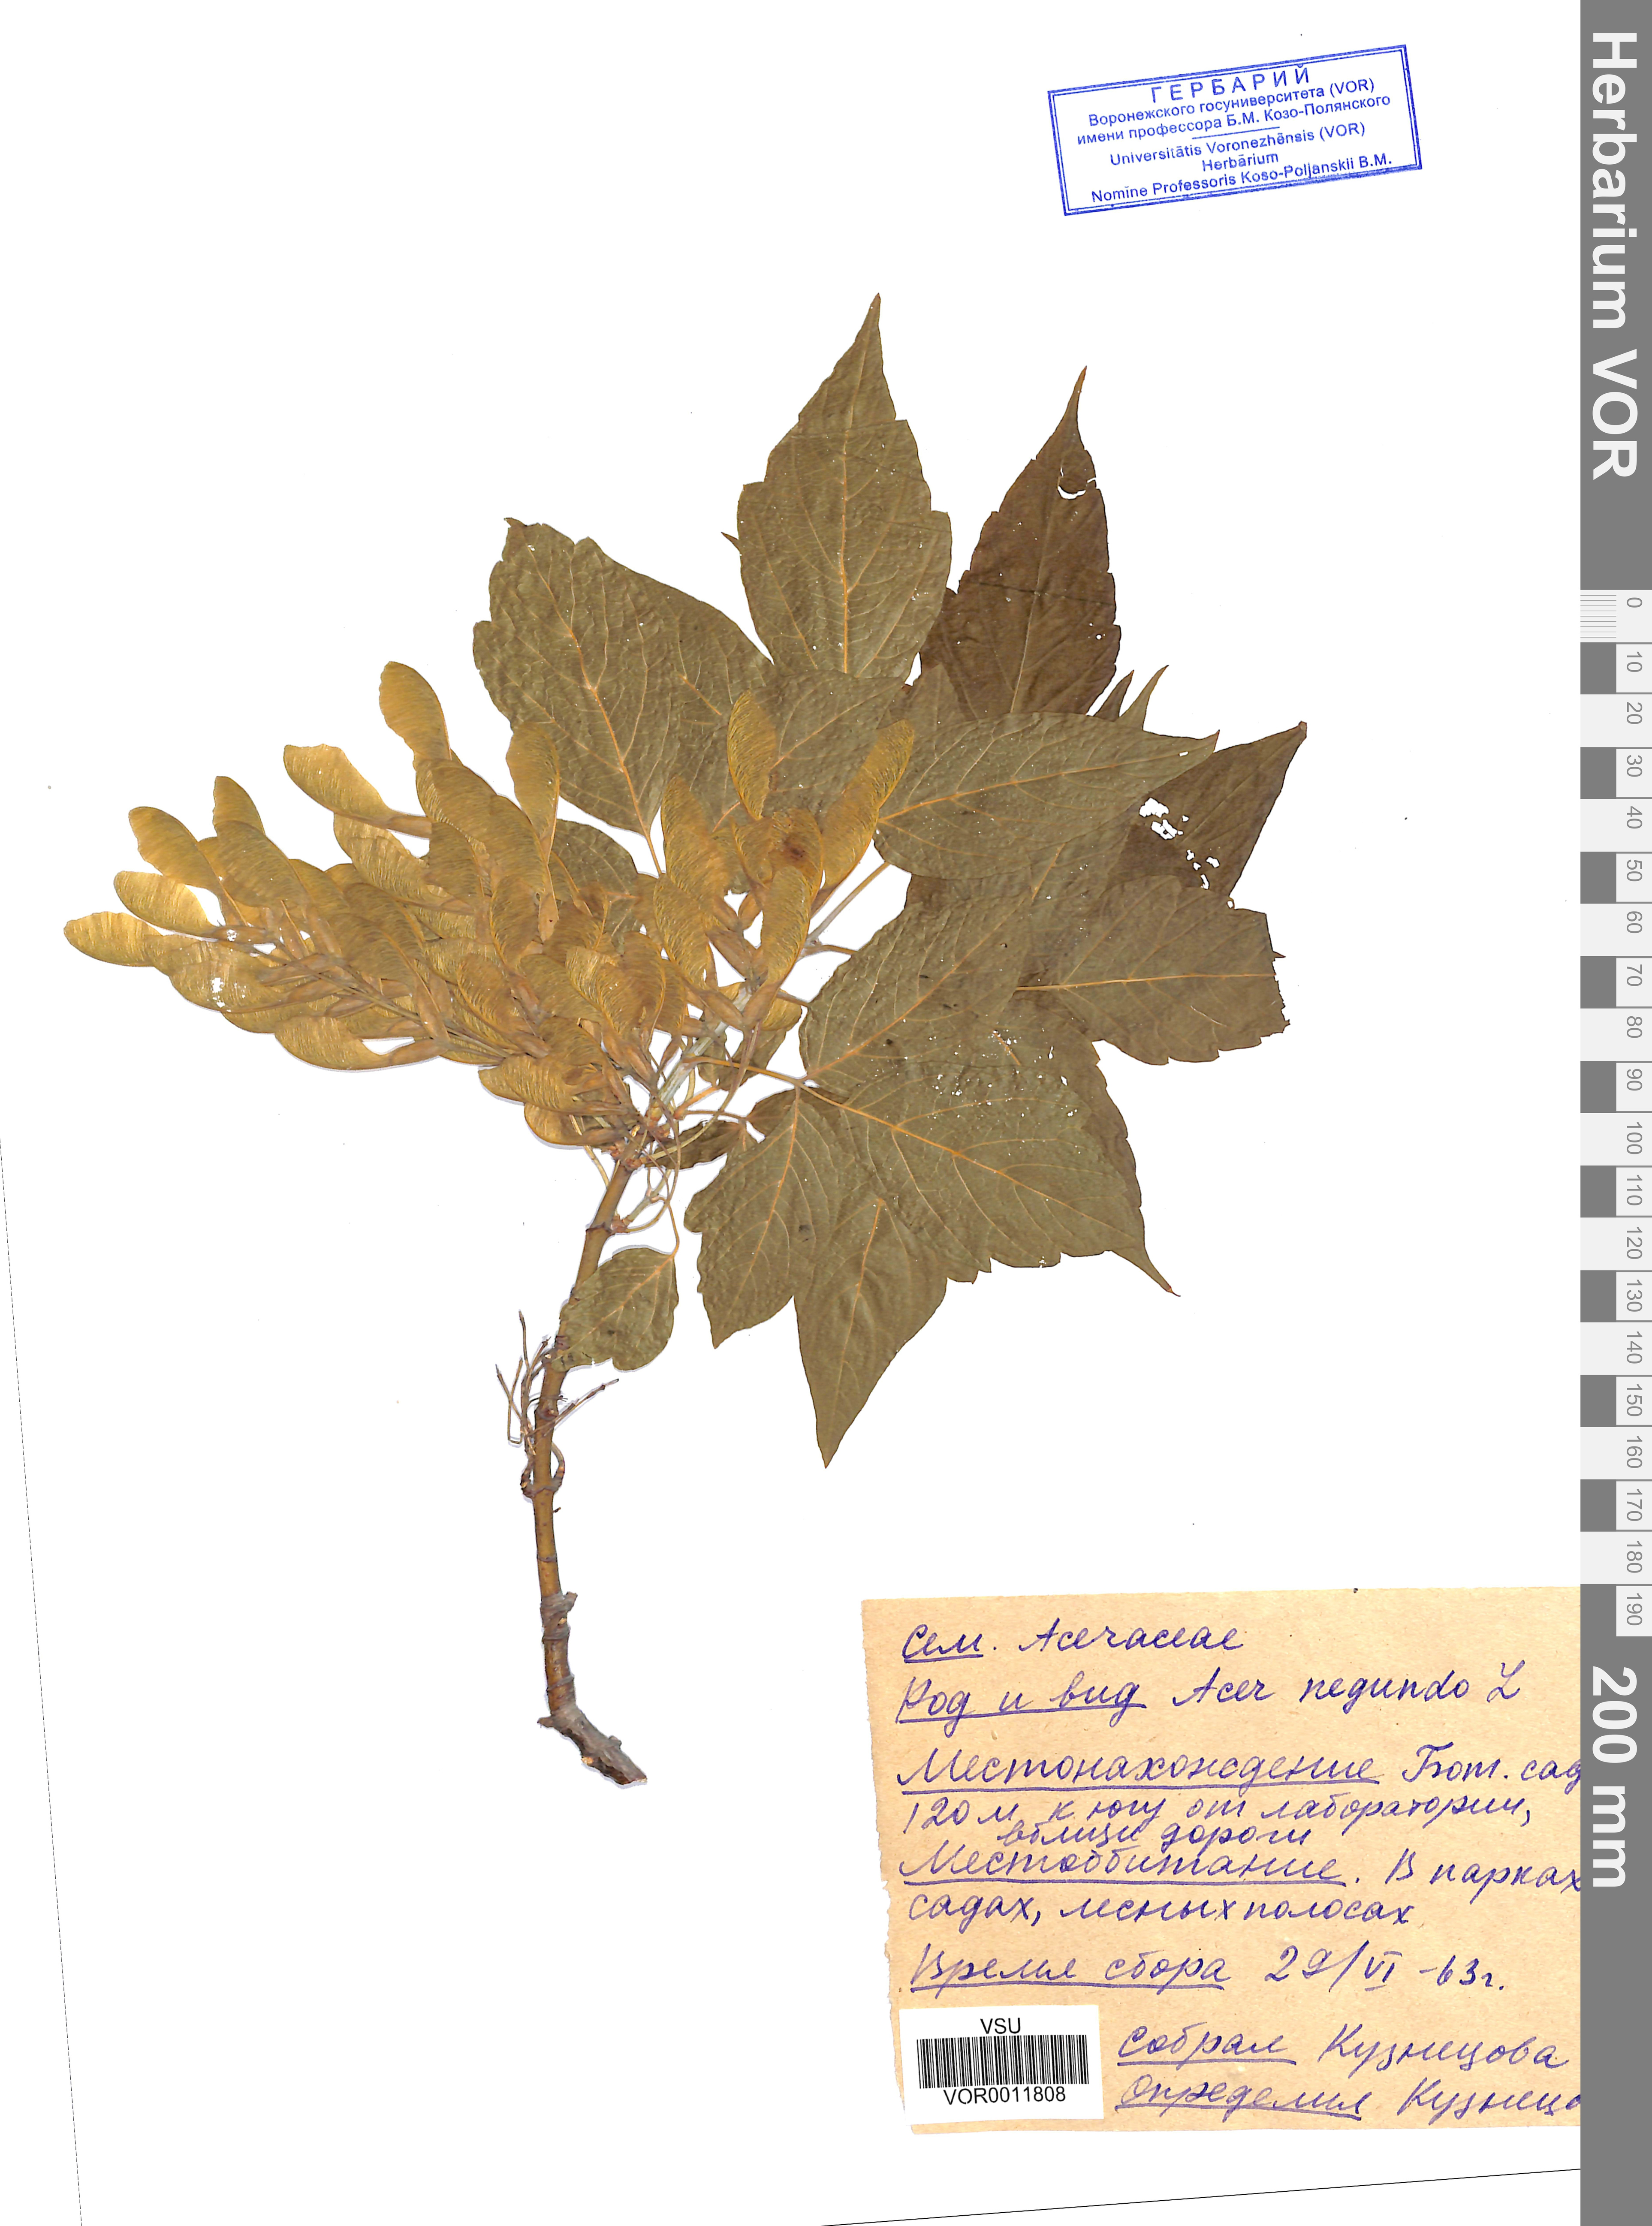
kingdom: Plantae
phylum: Tracheophyta
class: Magnoliopsida
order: Sapindales
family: Sapindaceae
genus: Acer
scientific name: Acer negundo
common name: Ashleaf maple
